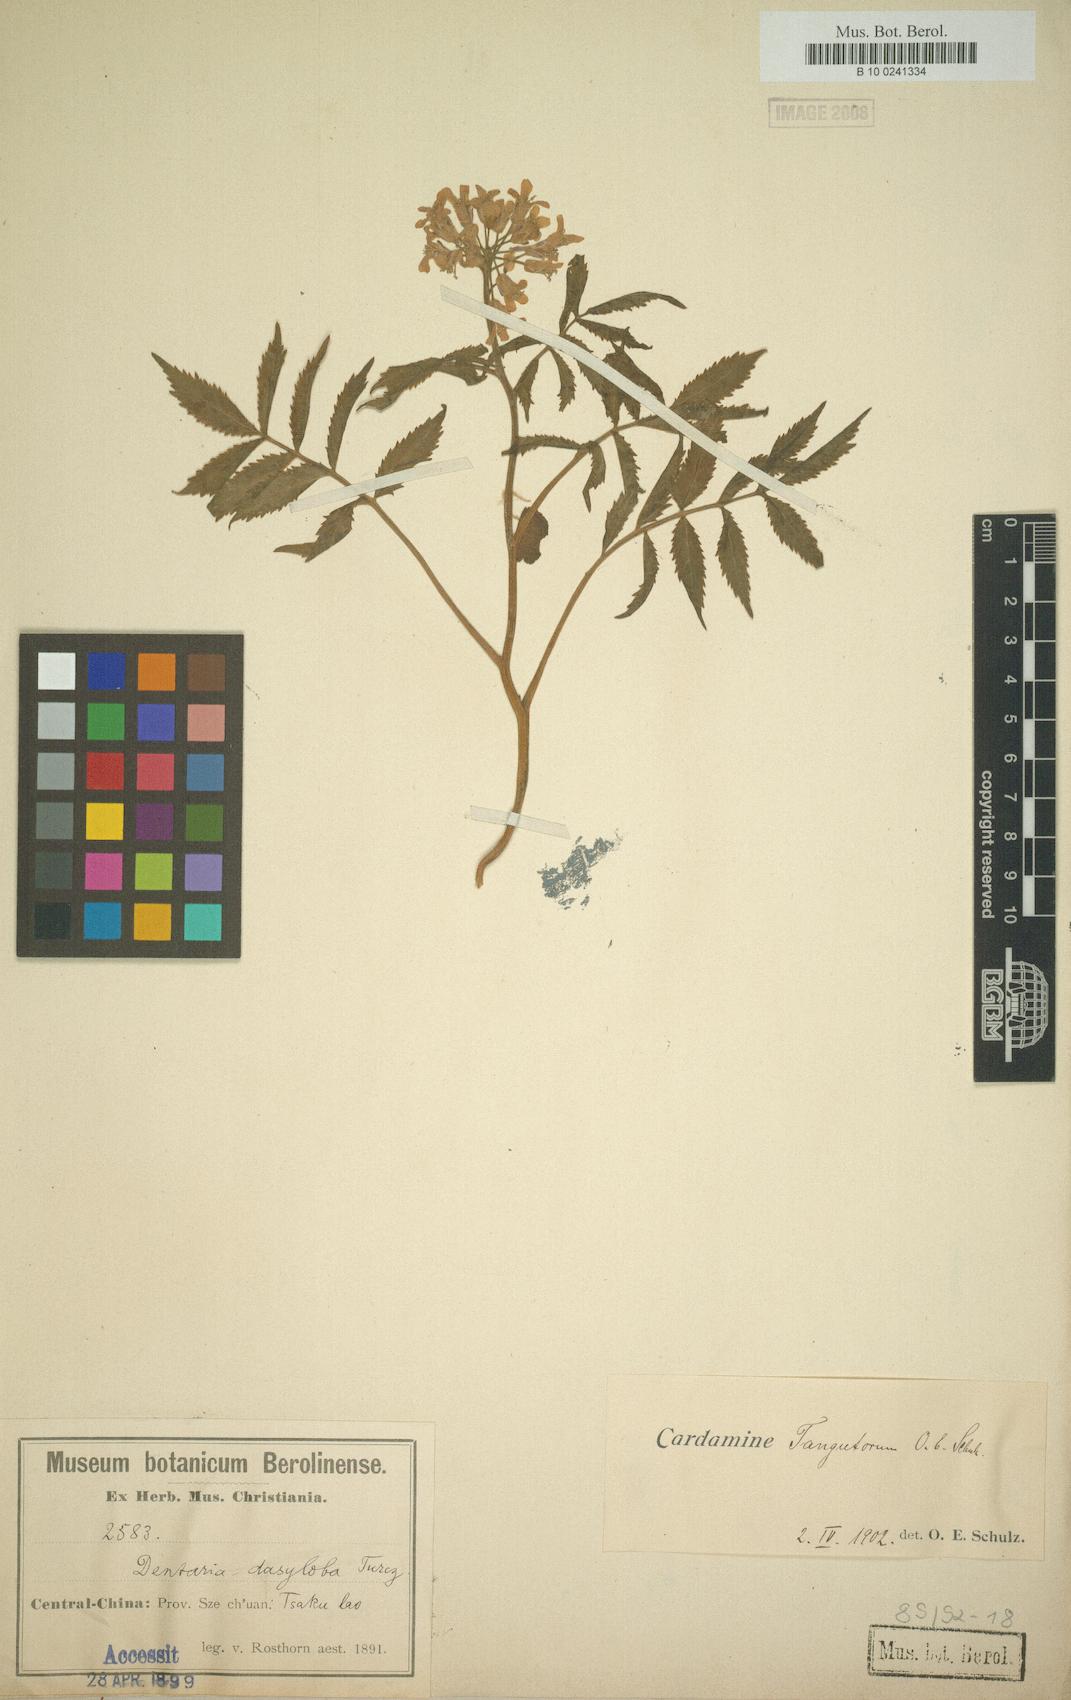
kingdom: Plantae
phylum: Tracheophyta
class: Magnoliopsida
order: Brassicales
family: Brassicaceae
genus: Cardamine
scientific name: Cardamine tangutorum
